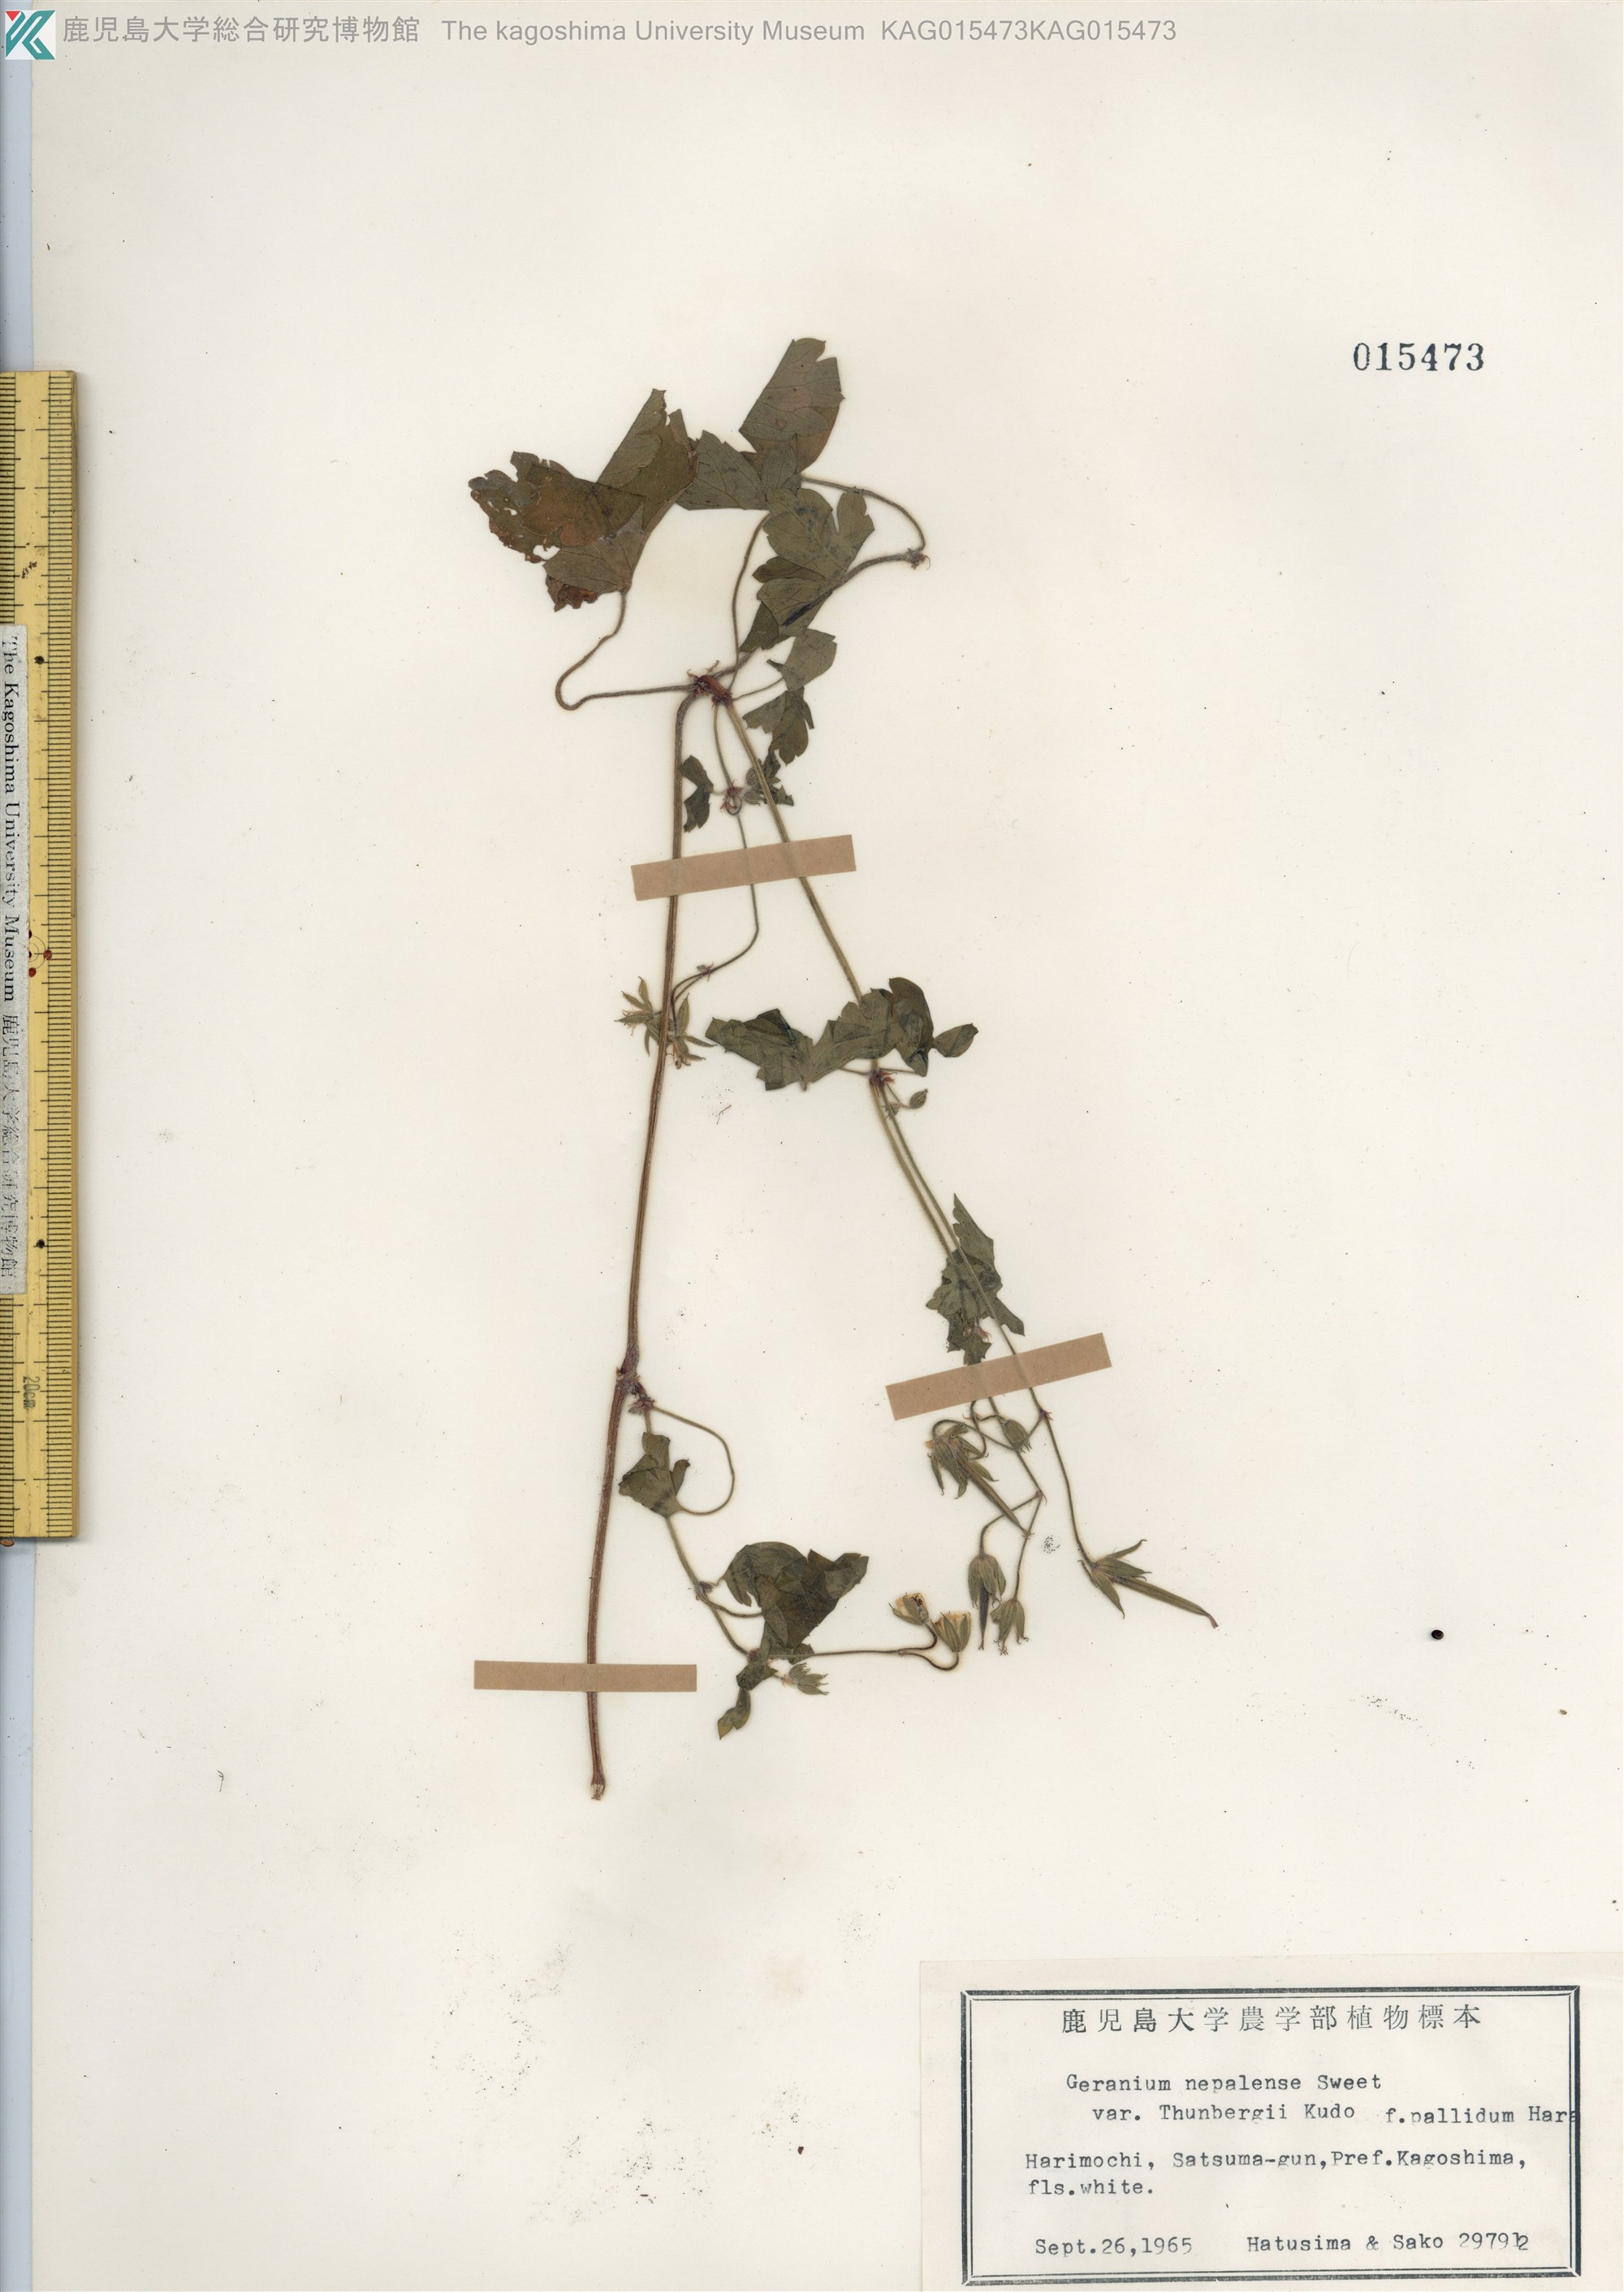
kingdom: Plantae
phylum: Tracheophyta
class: Magnoliopsida
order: Geraniales
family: Geraniaceae
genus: Geranium
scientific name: Geranium thunbergii
